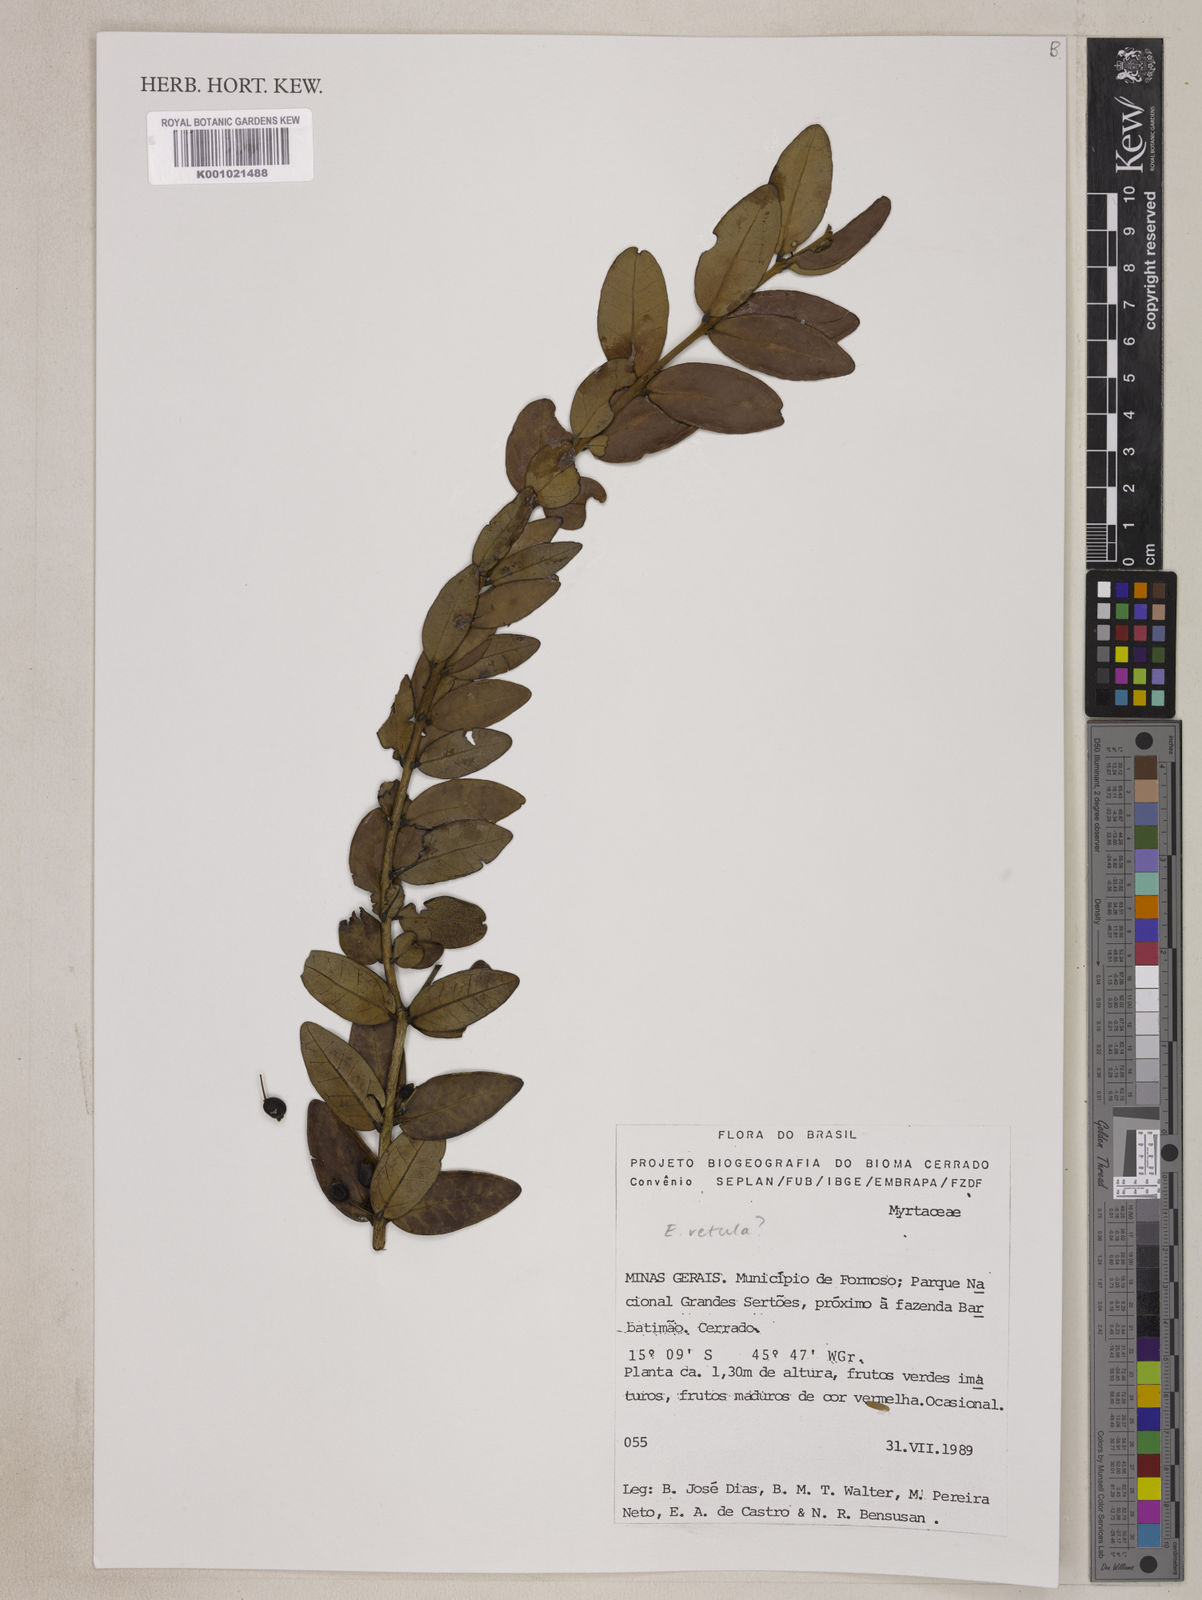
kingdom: Plantae
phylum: Tracheophyta
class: Magnoliopsida
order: Myrtales
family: Myrtaceae
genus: Eugenia
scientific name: Eugenia vetula
